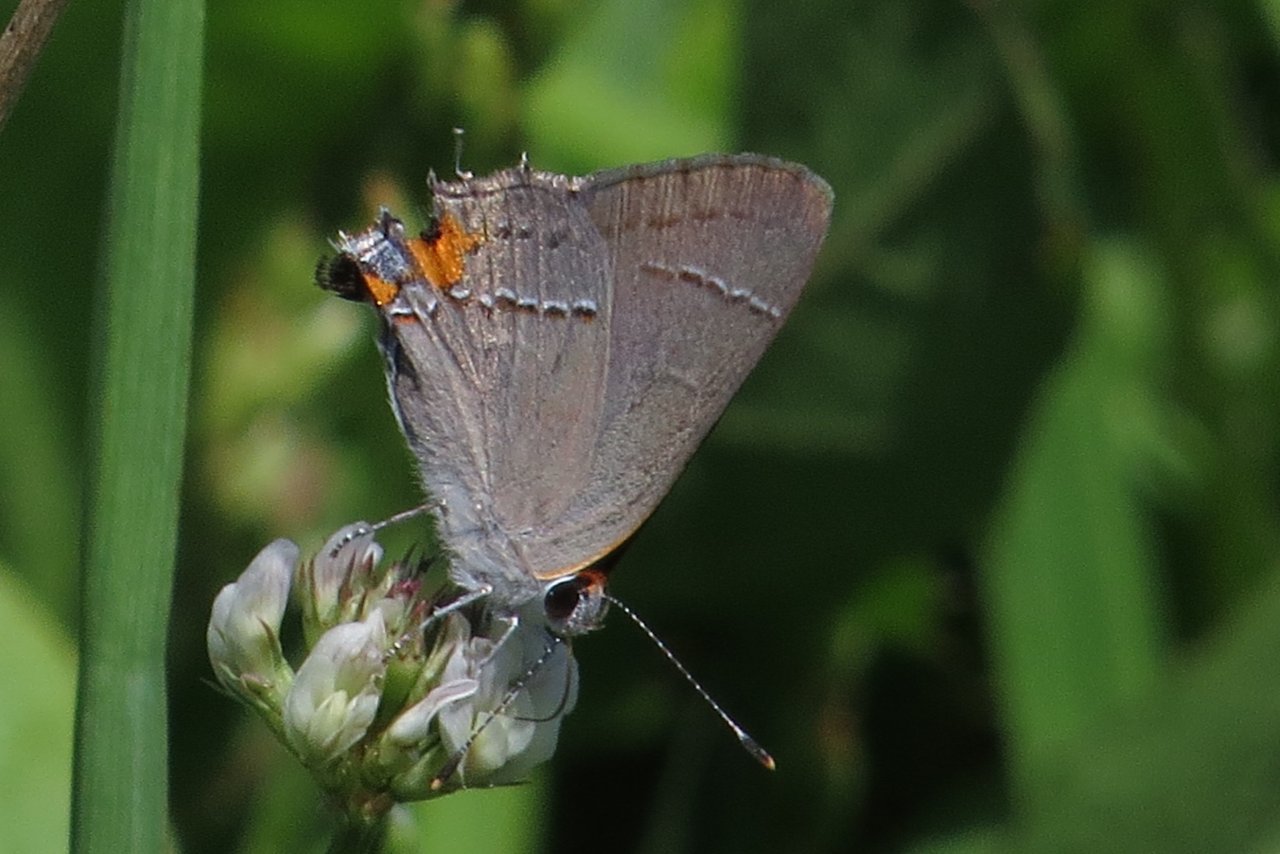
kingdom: Animalia
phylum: Arthropoda
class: Insecta
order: Lepidoptera
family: Lycaenidae
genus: Strymon
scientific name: Strymon melinus
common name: Gray Hairstreak
